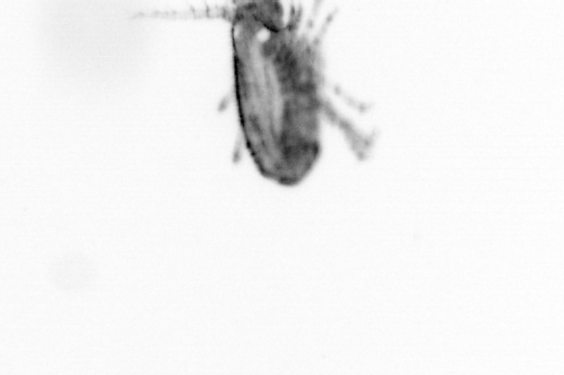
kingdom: Animalia
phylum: Arthropoda
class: Copepoda
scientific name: Copepoda
